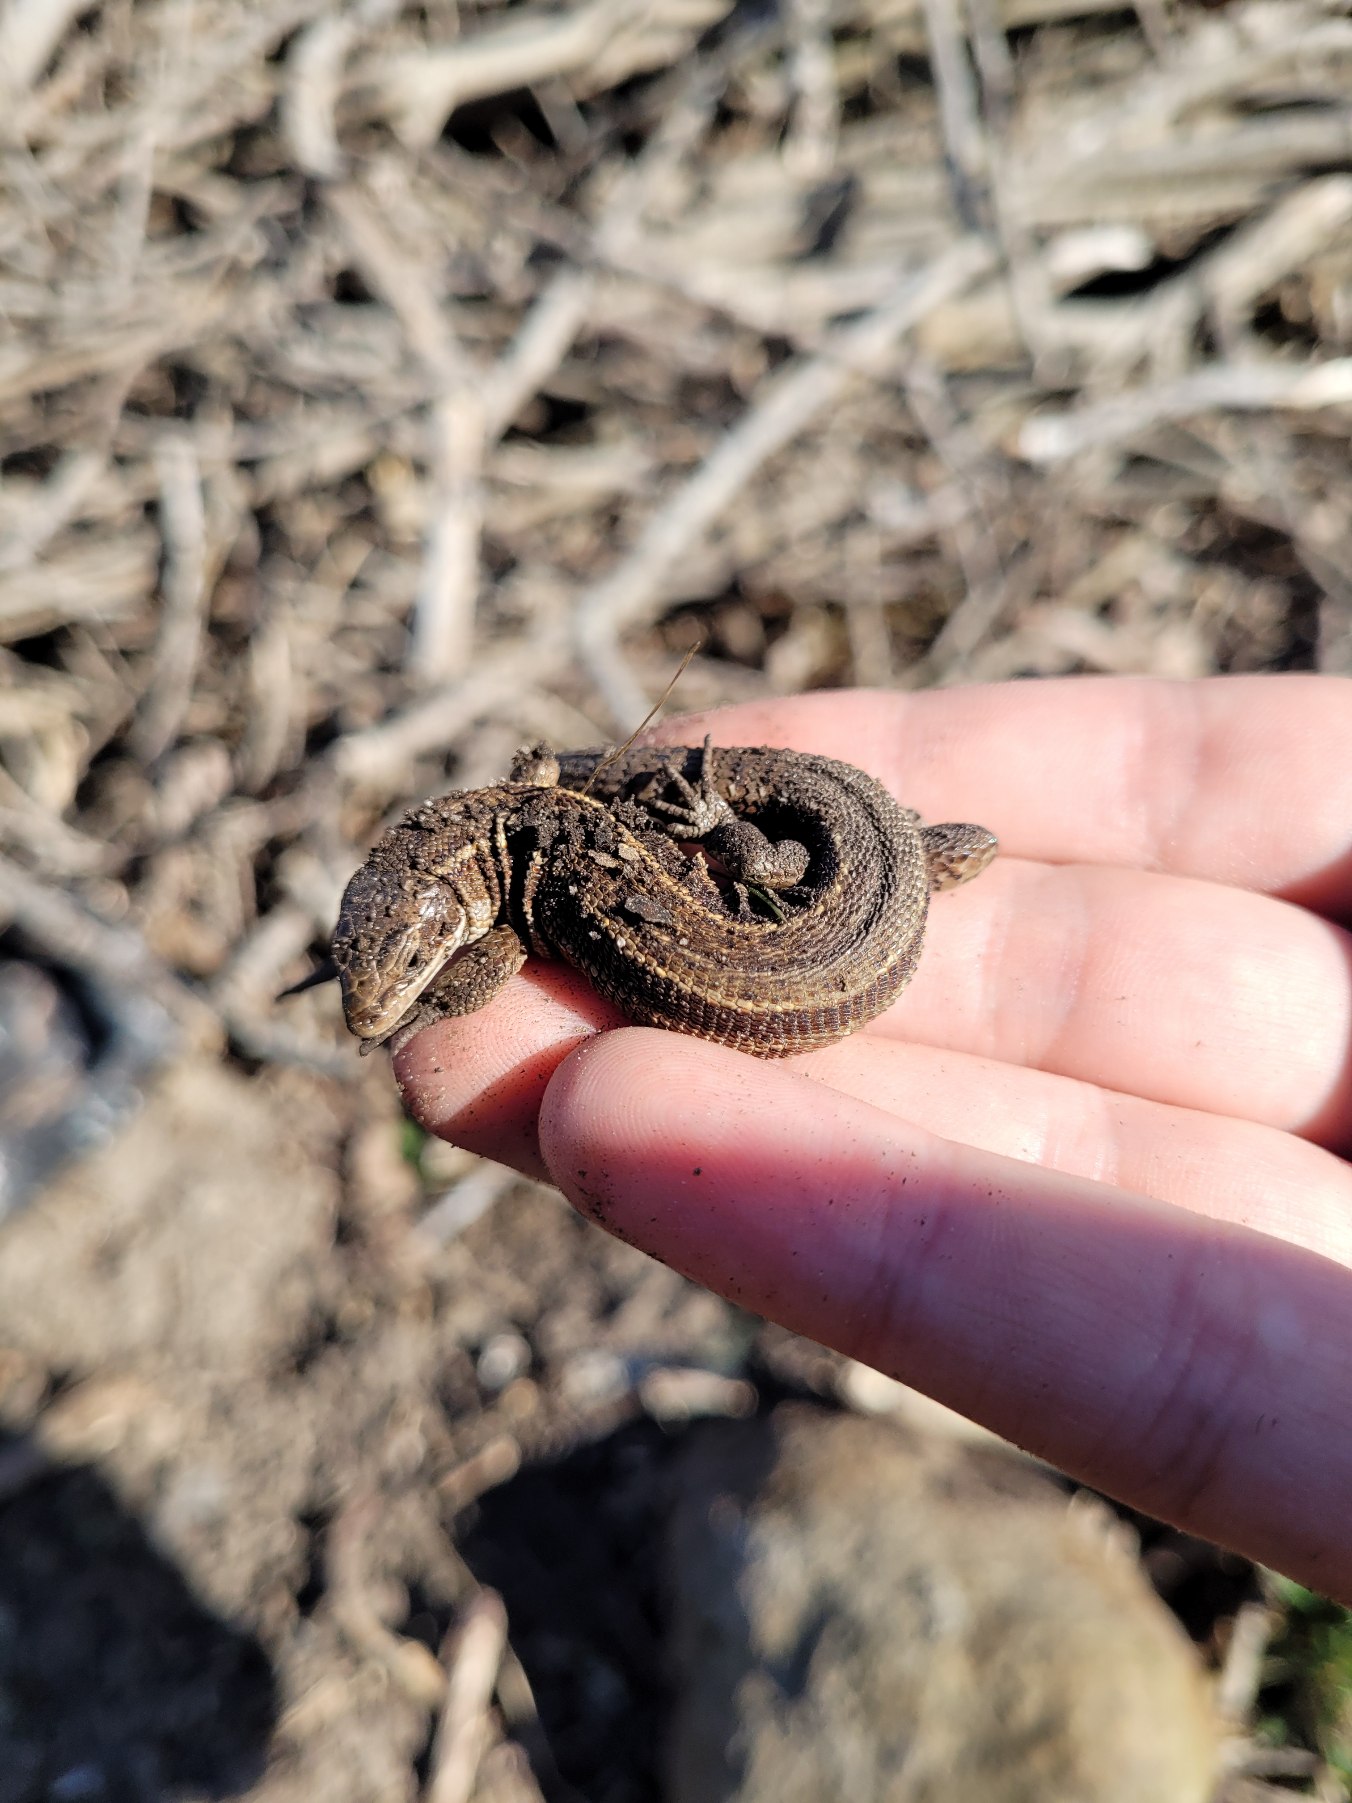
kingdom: Animalia
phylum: Chordata
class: Squamata
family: Lacertidae
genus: Zootoca
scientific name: Zootoca vivipara
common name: Skovfirben
